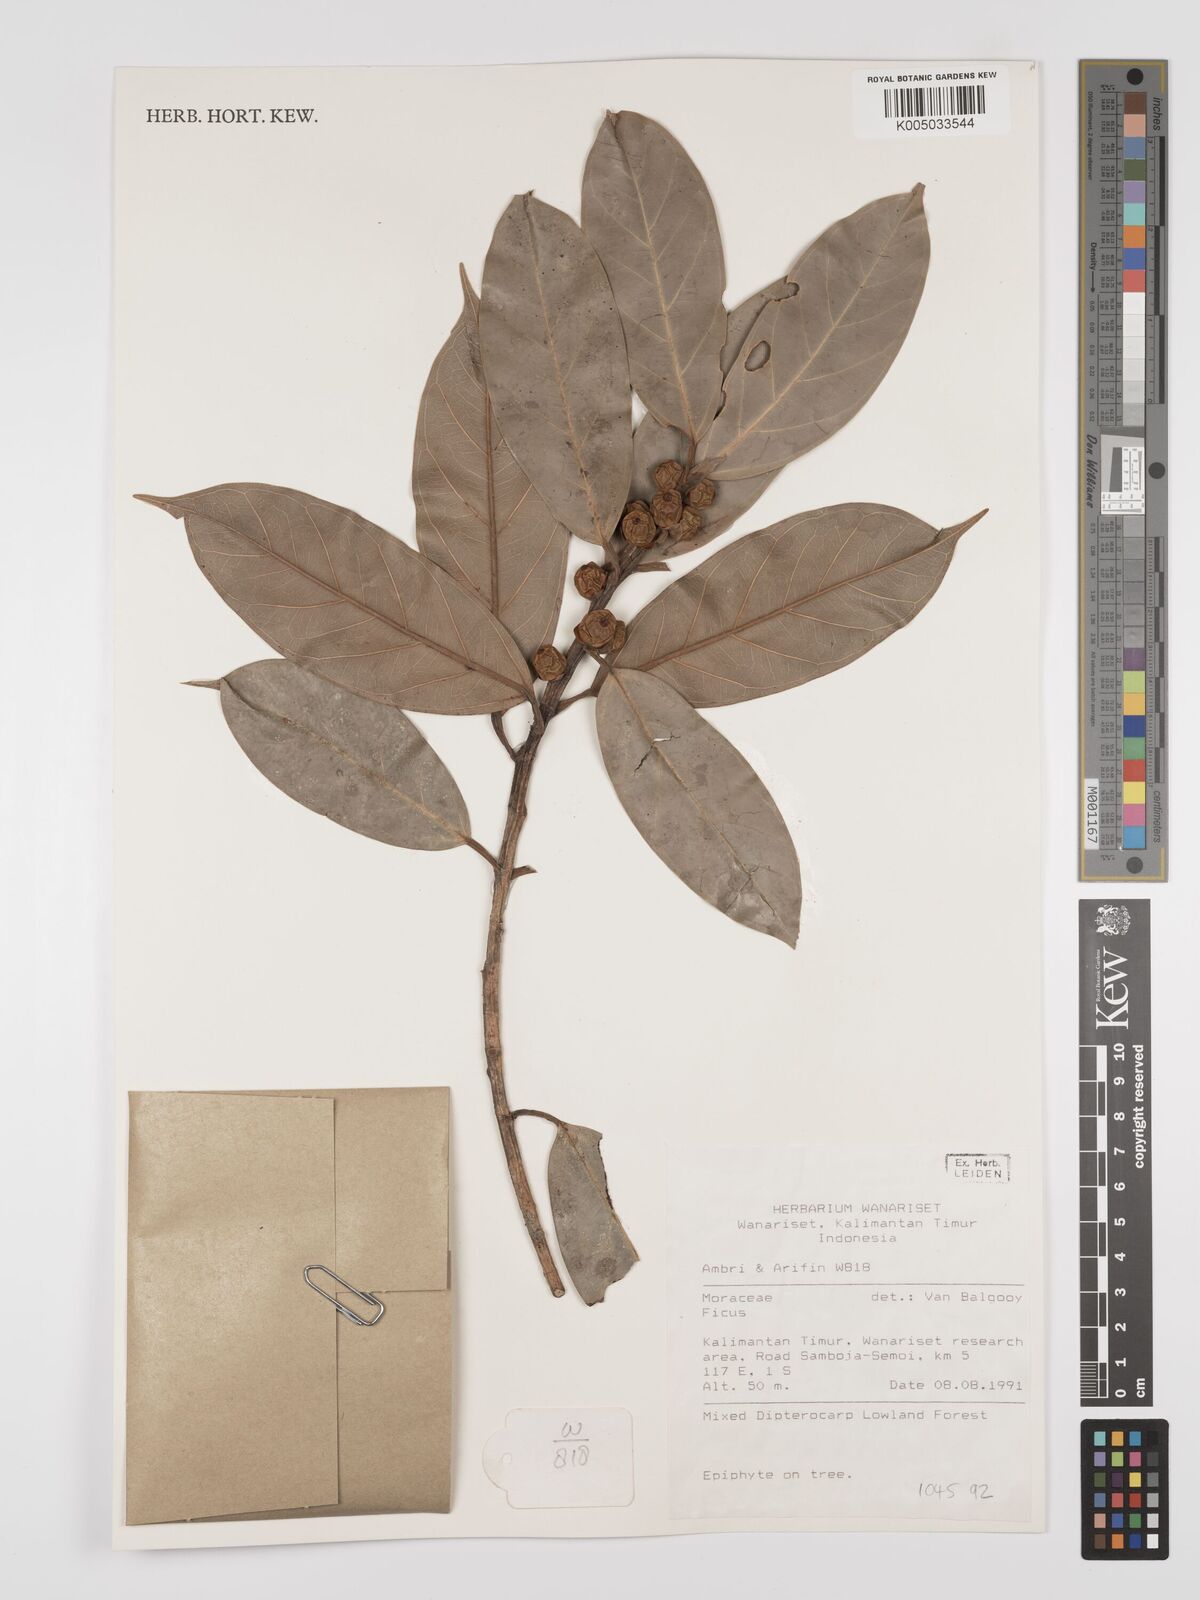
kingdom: Plantae
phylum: Tracheophyta
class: Magnoliopsida
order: Rosales
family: Moraceae
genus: Ficus
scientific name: Ficus
